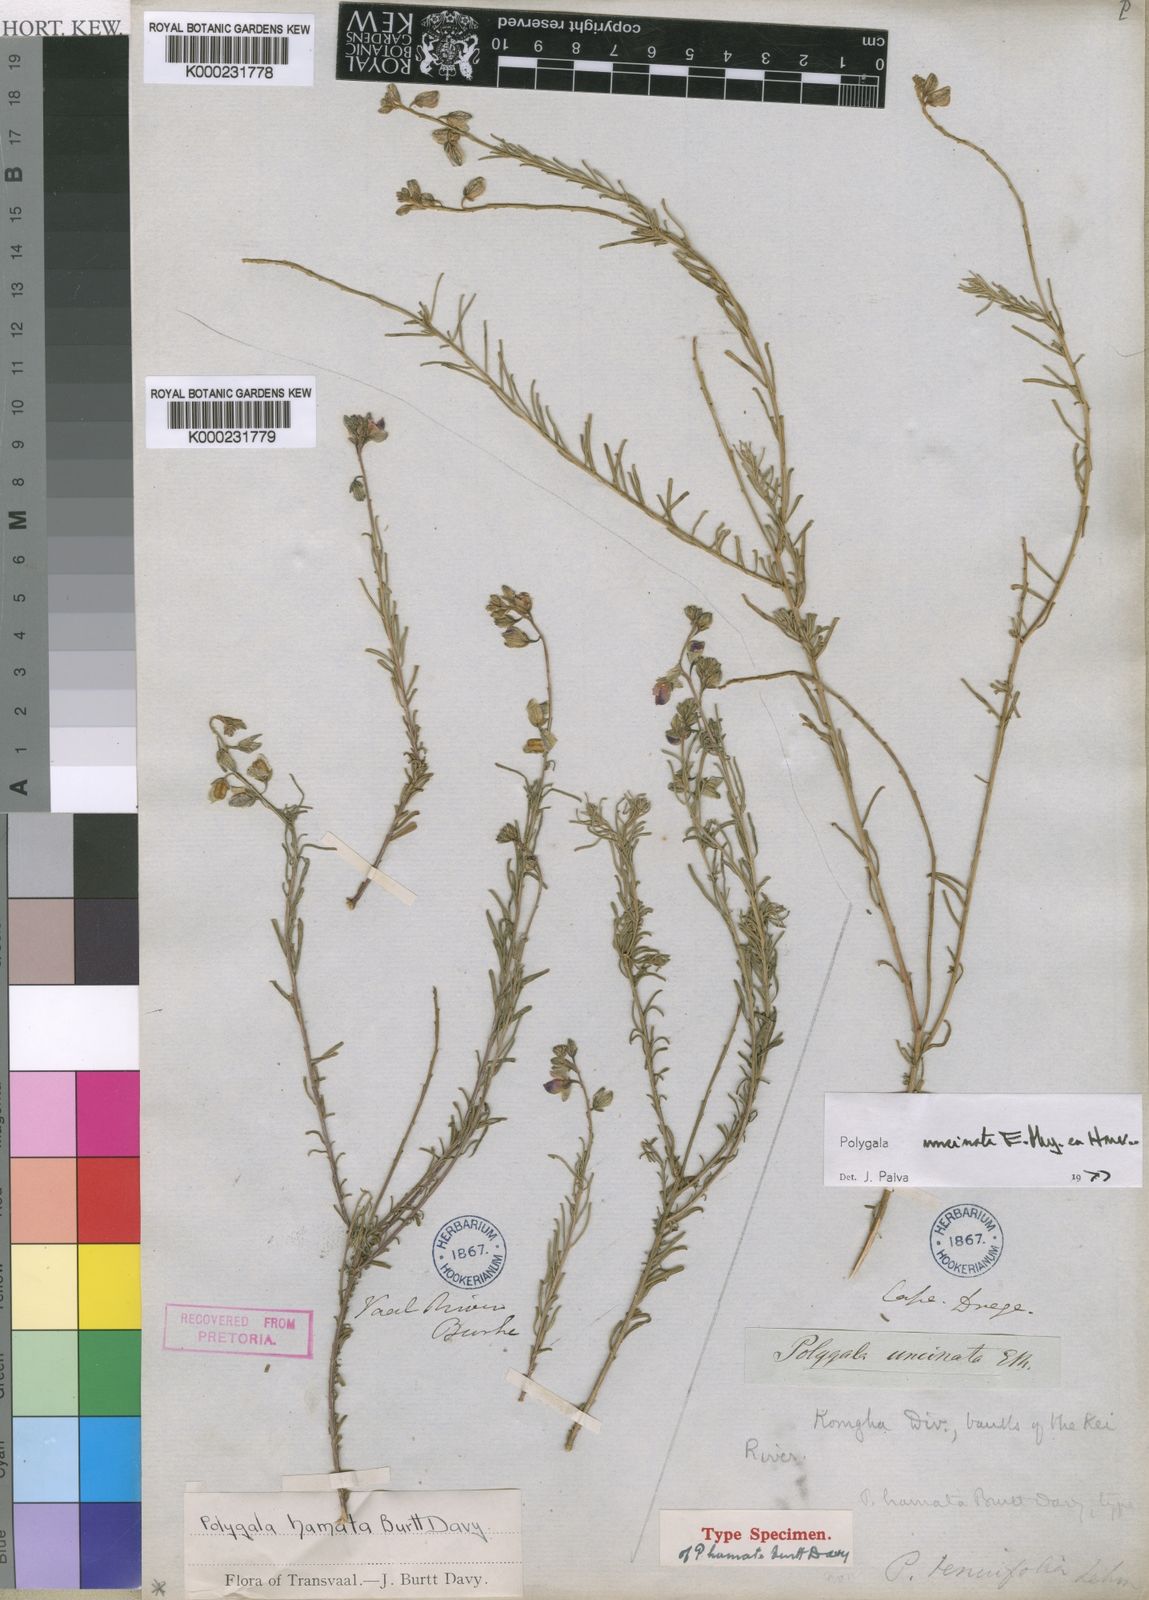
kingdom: Plantae
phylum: Tracheophyta
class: Magnoliopsida
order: Fabales
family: Polygalaceae
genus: Polygala
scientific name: Polygala
